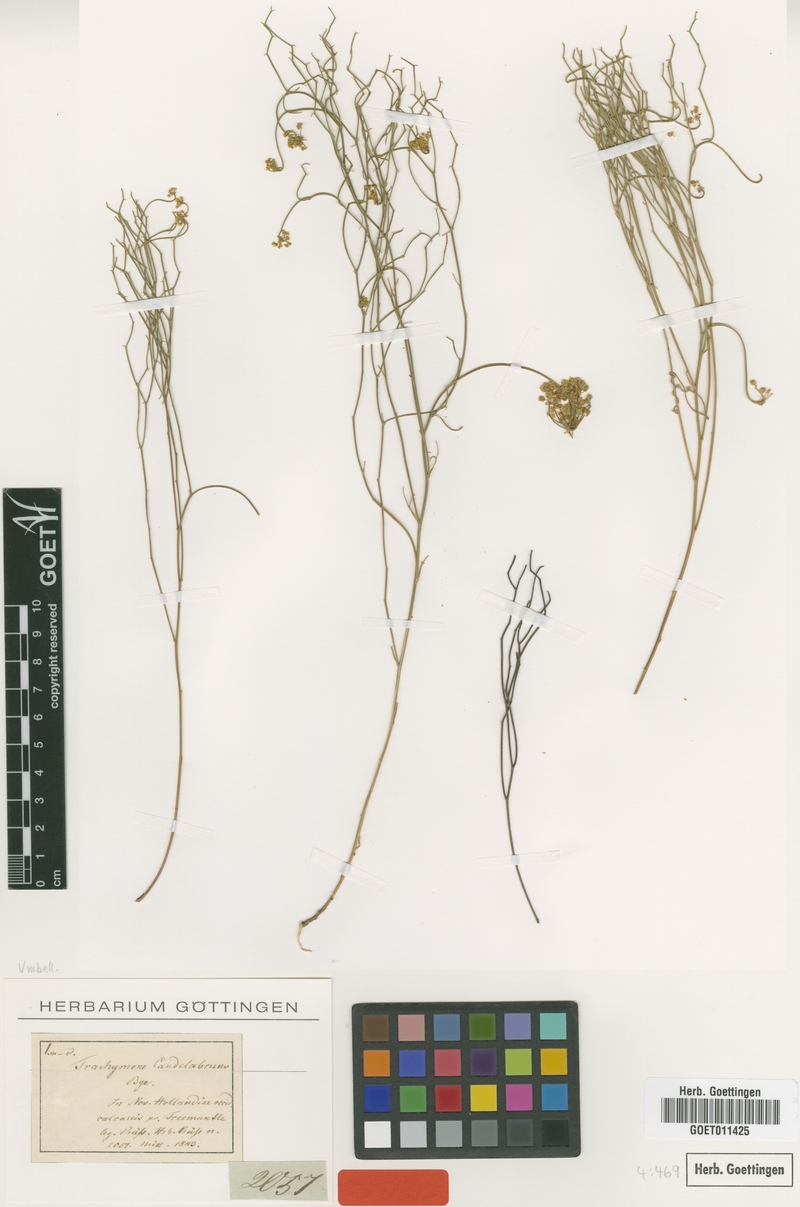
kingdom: Plantae
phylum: Tracheophyta
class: Magnoliopsida
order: Apiales
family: Araliaceae
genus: Trachymene
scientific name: Trachymene moorei
